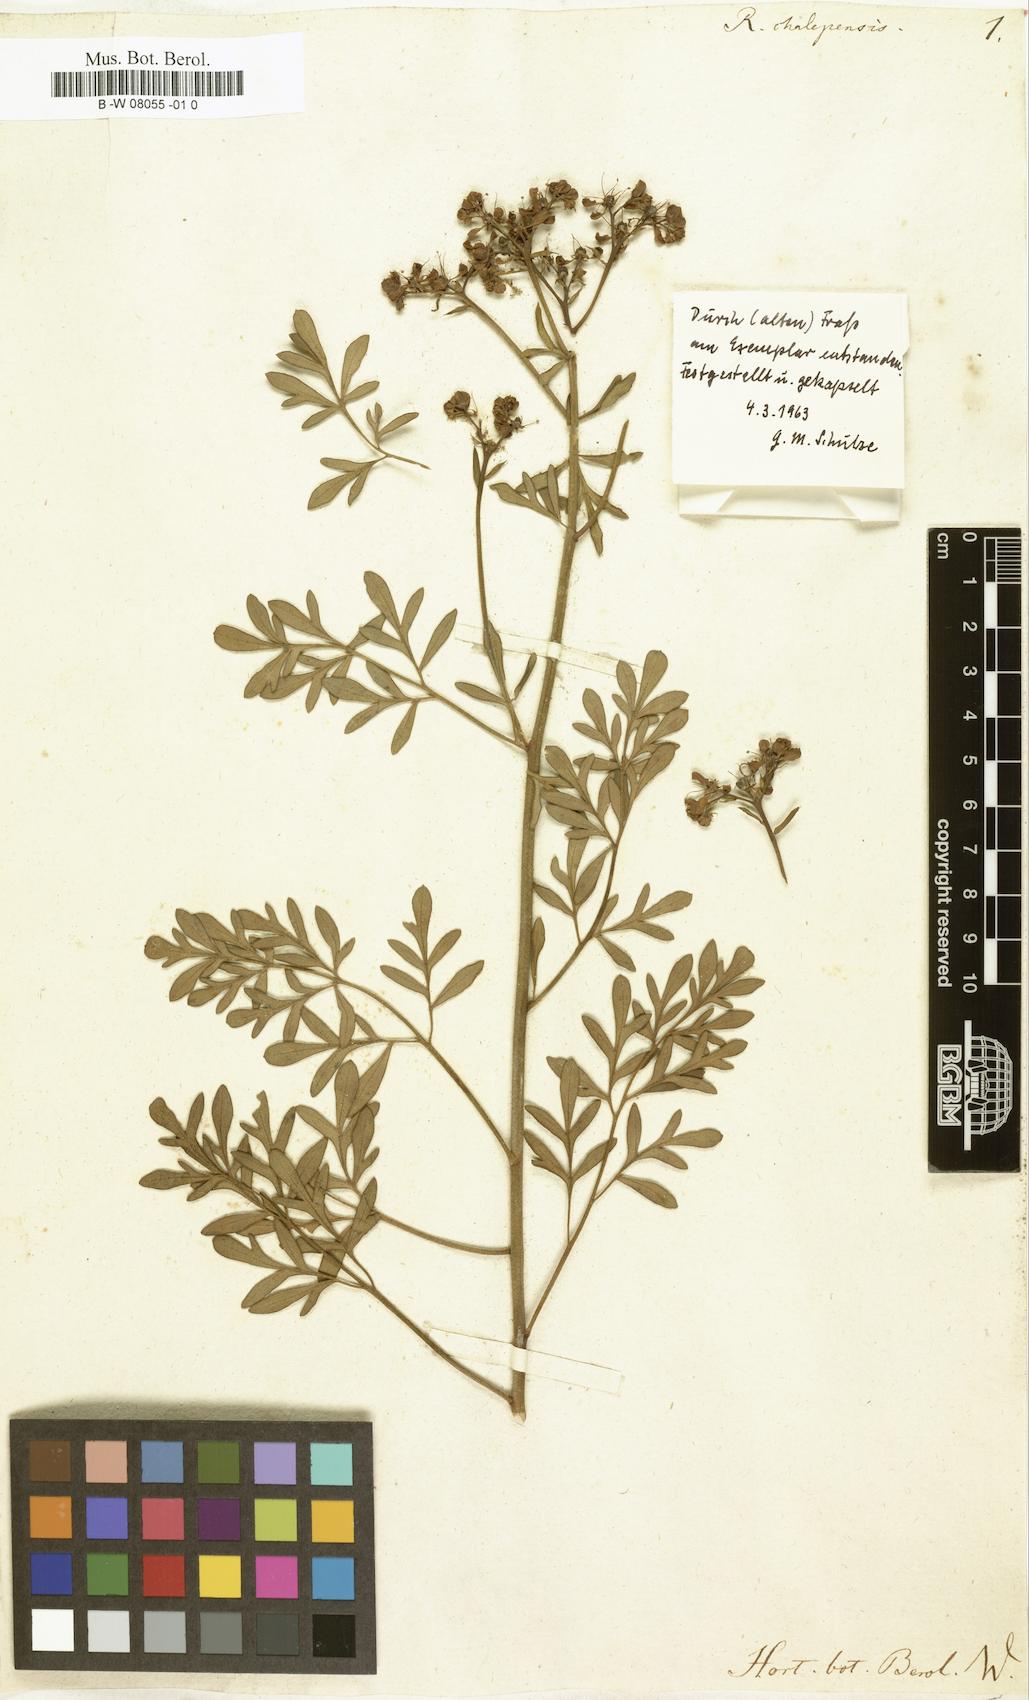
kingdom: Plantae
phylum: Tracheophyta
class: Magnoliopsida
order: Sapindales
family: Rutaceae
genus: Ruta
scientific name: Ruta chalepensis
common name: Fringed rue
